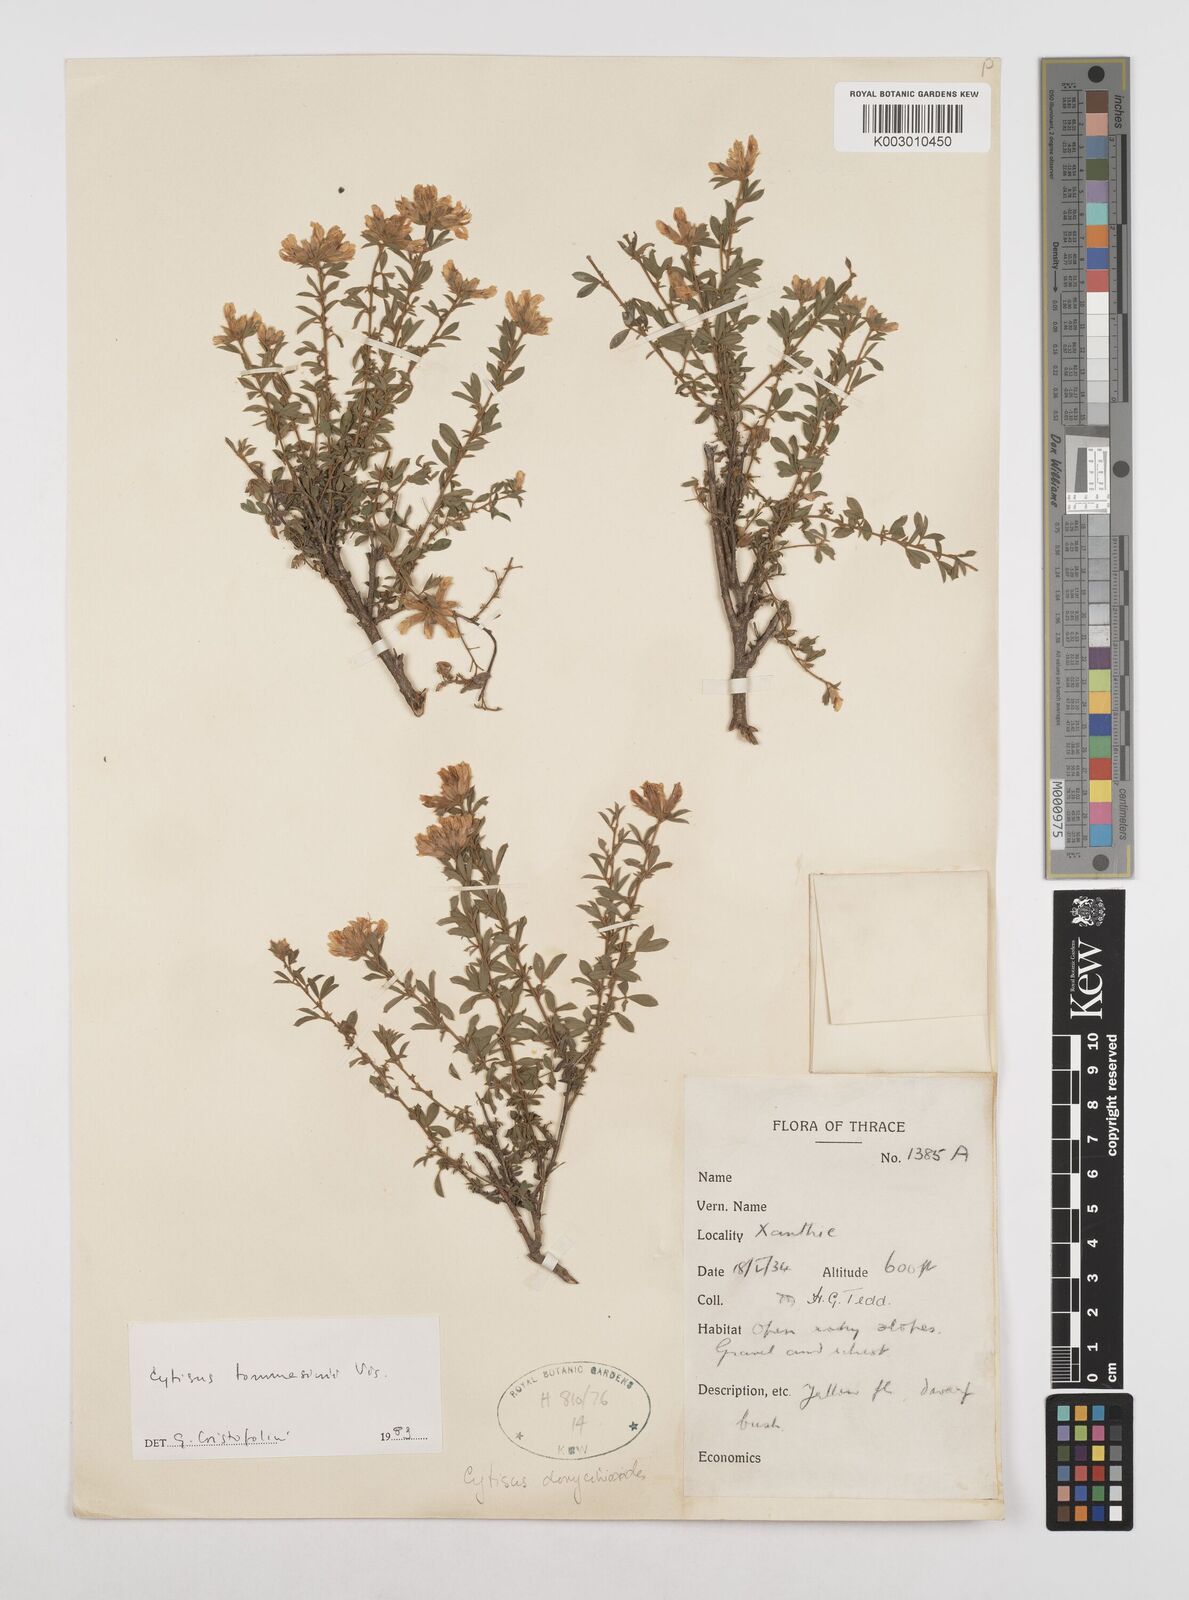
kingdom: Plantae
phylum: Tracheophyta
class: Magnoliopsida
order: Fabales
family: Fabaceae
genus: Chamaecytisus
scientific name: Chamaecytisus tommasinii
